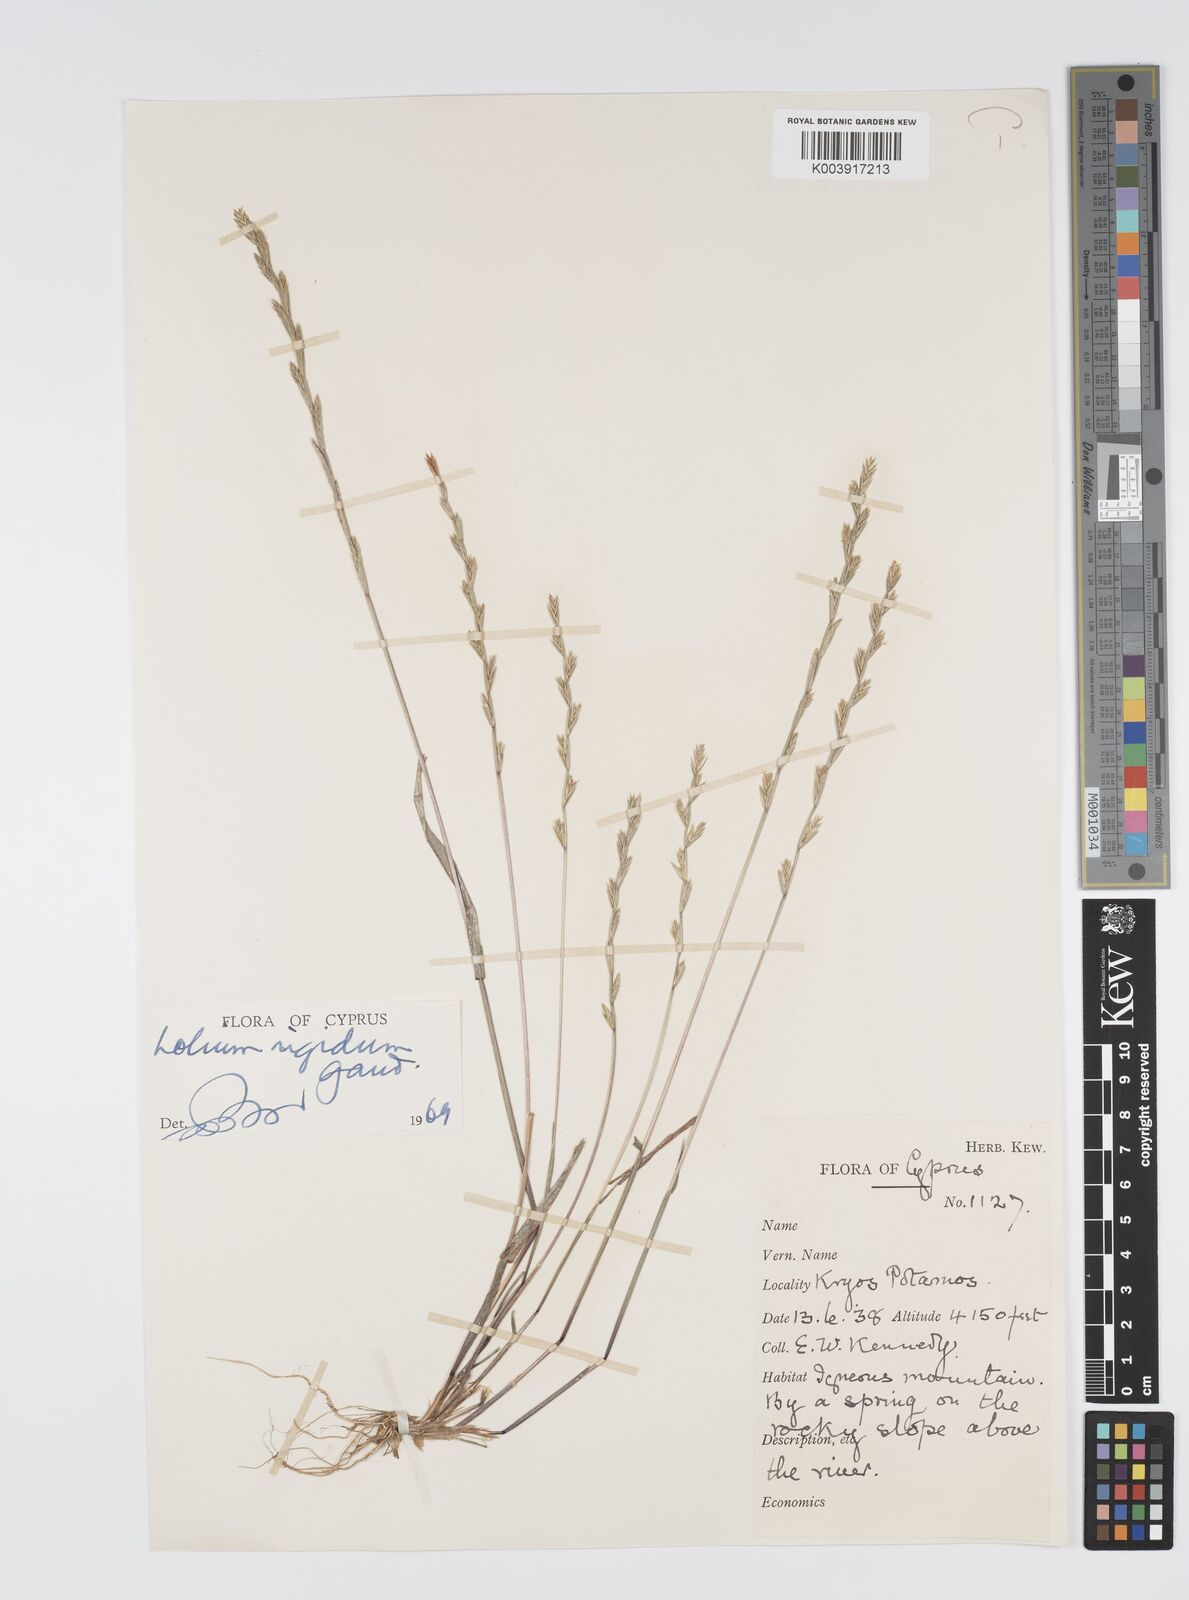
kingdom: Plantae
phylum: Tracheophyta
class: Liliopsida
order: Poales
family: Poaceae
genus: Lolium
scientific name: Lolium rigidum
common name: Wimmera ryegrass
